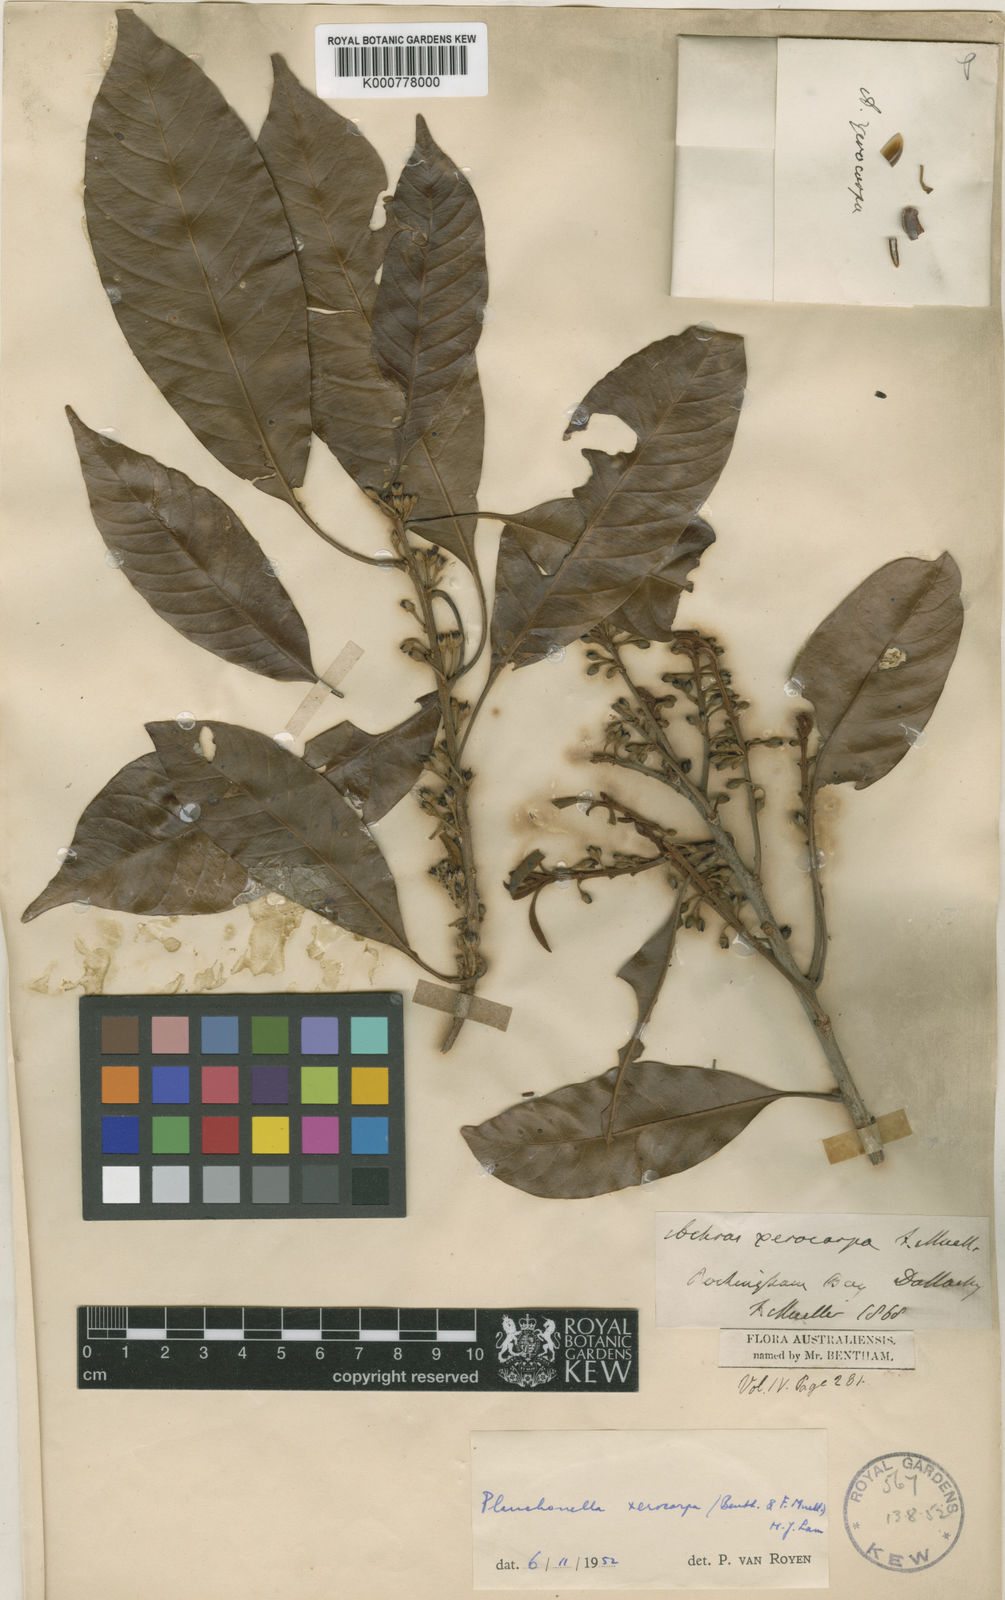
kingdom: Plantae
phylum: Tracheophyta
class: Magnoliopsida
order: Ericales
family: Sapotaceae
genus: Pleioluma
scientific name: Pleioluma xerocarpa
